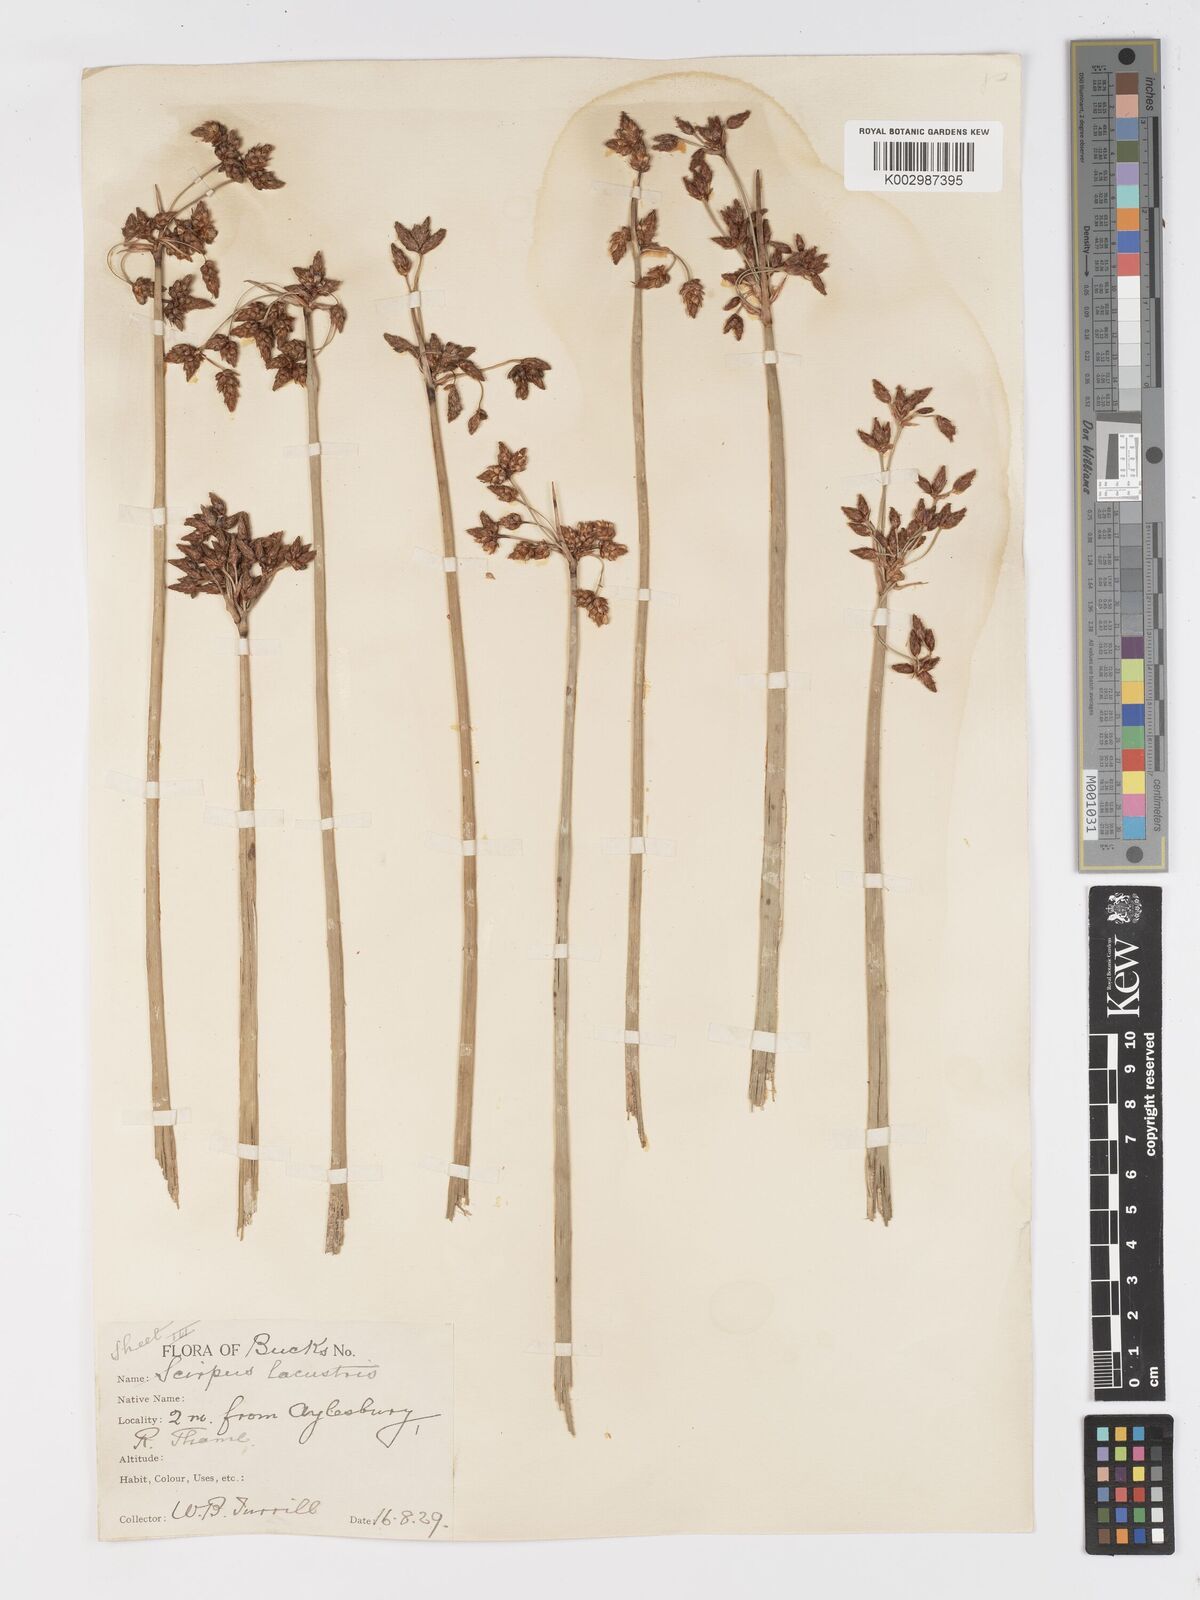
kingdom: Plantae
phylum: Tracheophyta
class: Liliopsida
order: Poales
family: Cyperaceae
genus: Schoenoplectus
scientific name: Schoenoplectus lacustris
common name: Common club-rush
